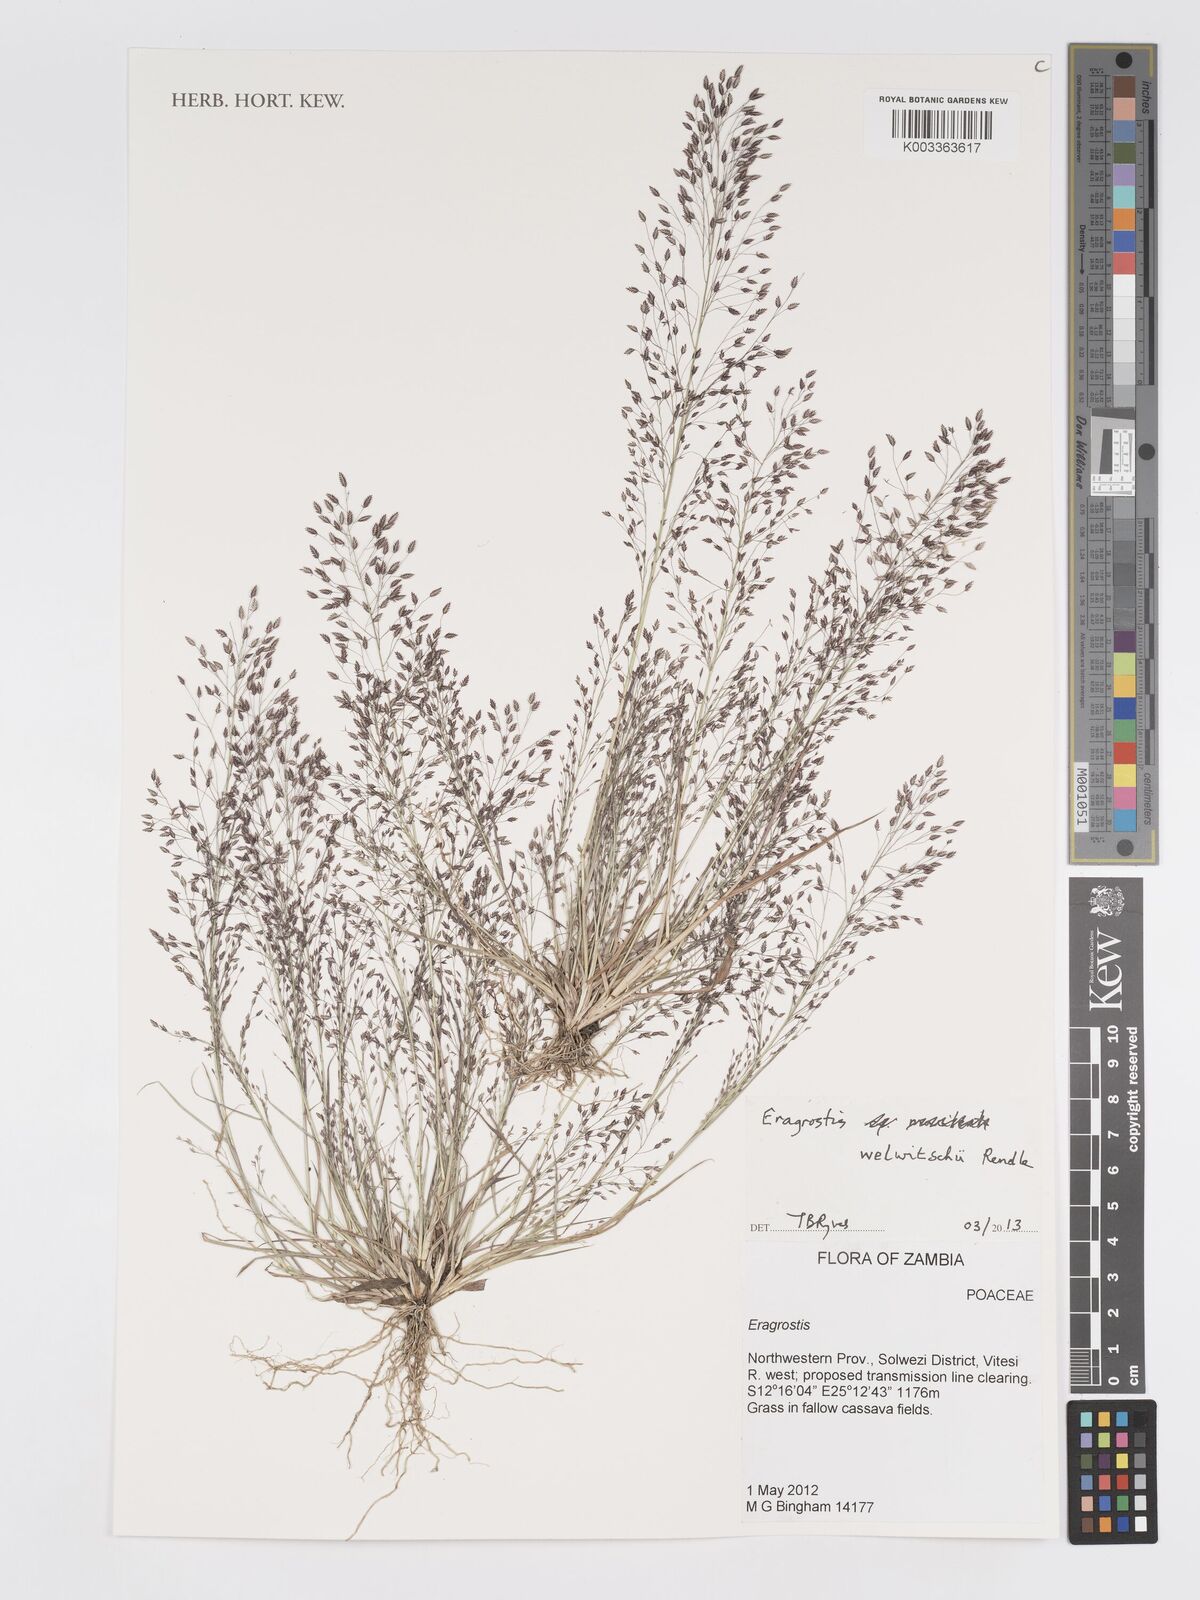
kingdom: Plantae
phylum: Tracheophyta
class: Liliopsida
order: Poales
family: Poaceae
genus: Eragrostis
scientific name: Eragrostis welwitschii
